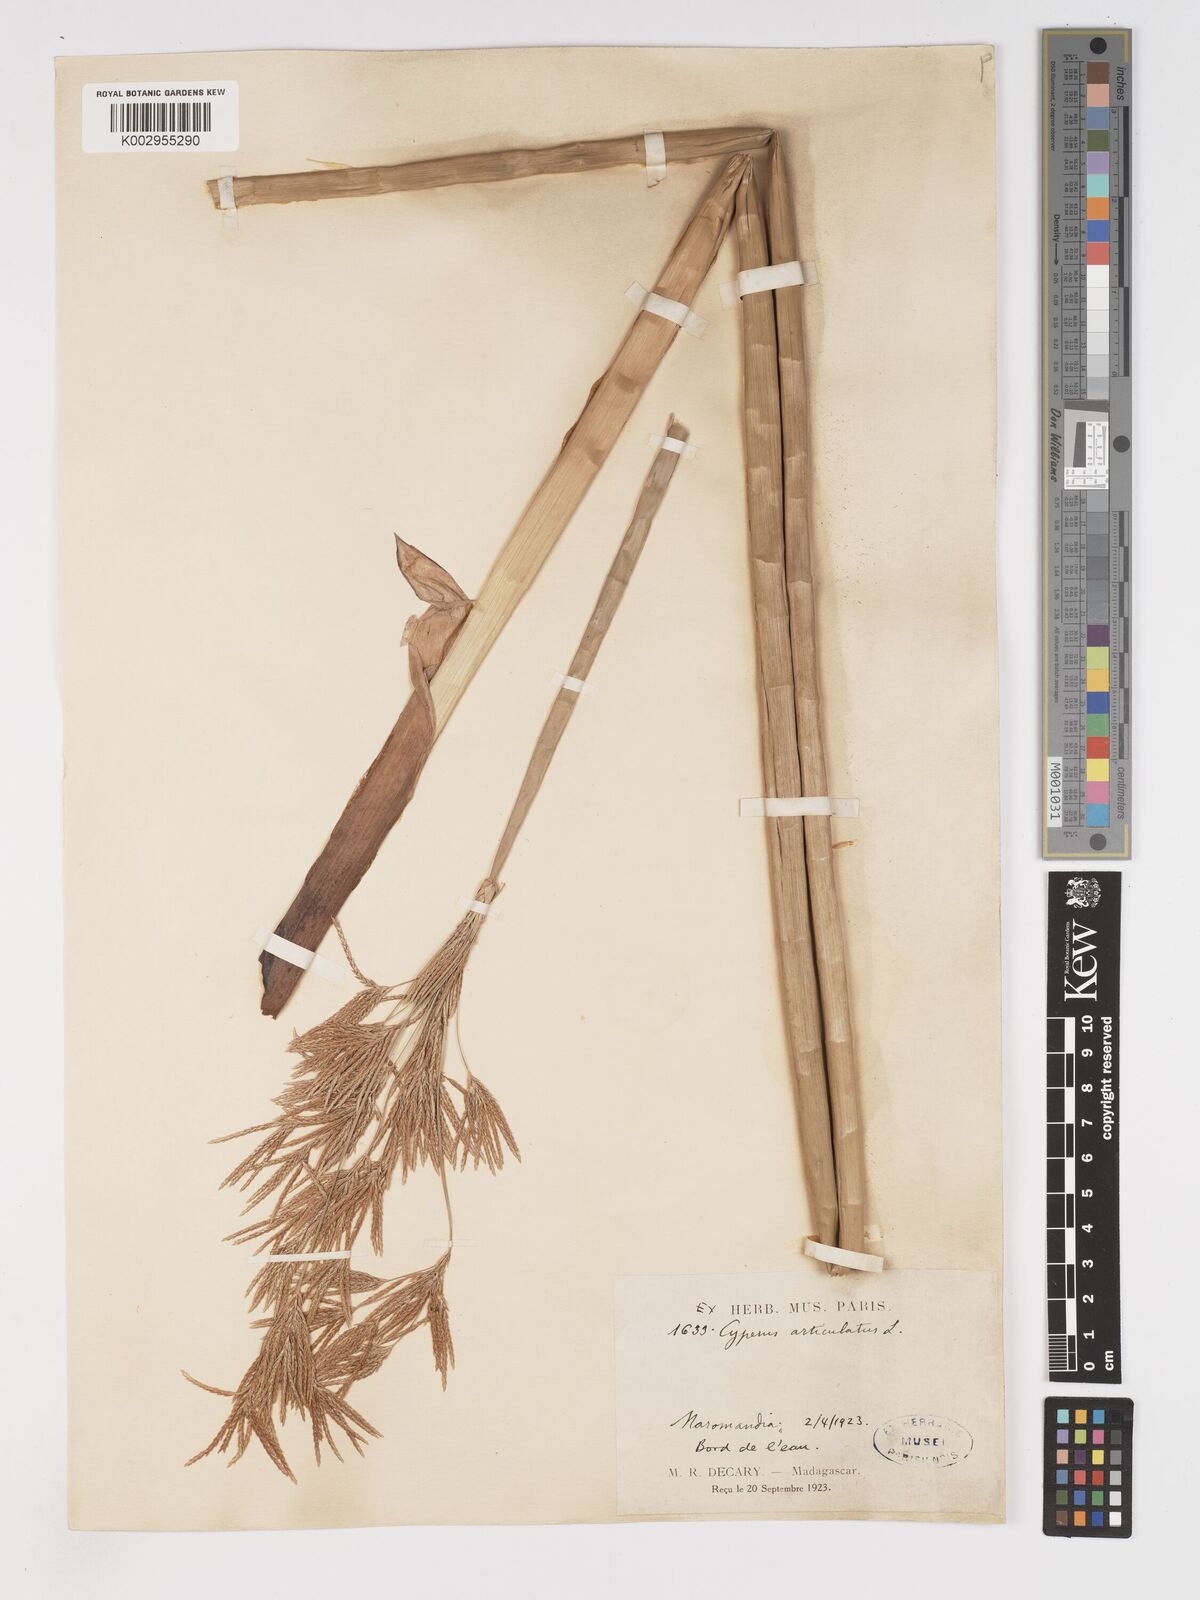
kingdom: Plantae
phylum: Tracheophyta
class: Liliopsida
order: Poales
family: Cyperaceae
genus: Cyperus
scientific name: Cyperus articulatus
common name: Jointed flatsedge
